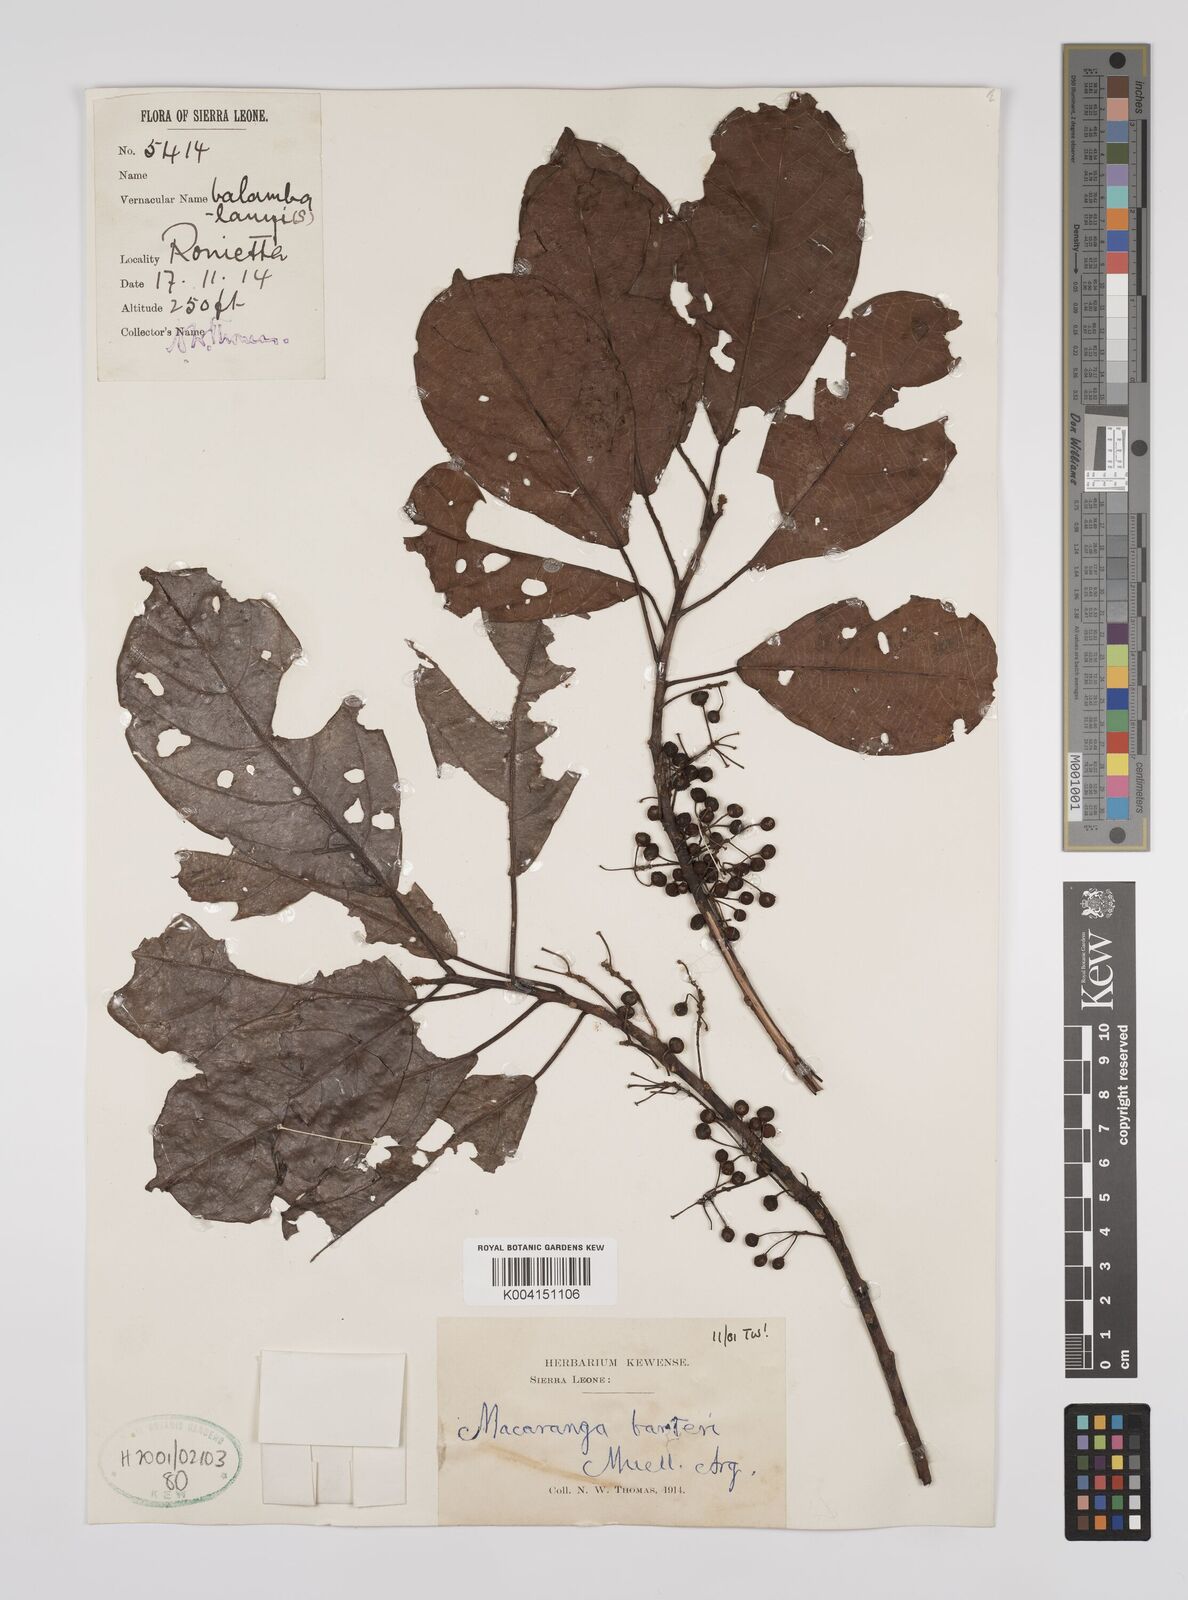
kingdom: Plantae
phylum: Tracheophyta
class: Magnoliopsida
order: Malpighiales
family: Euphorbiaceae
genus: Macaranga
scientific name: Macaranga barteri
